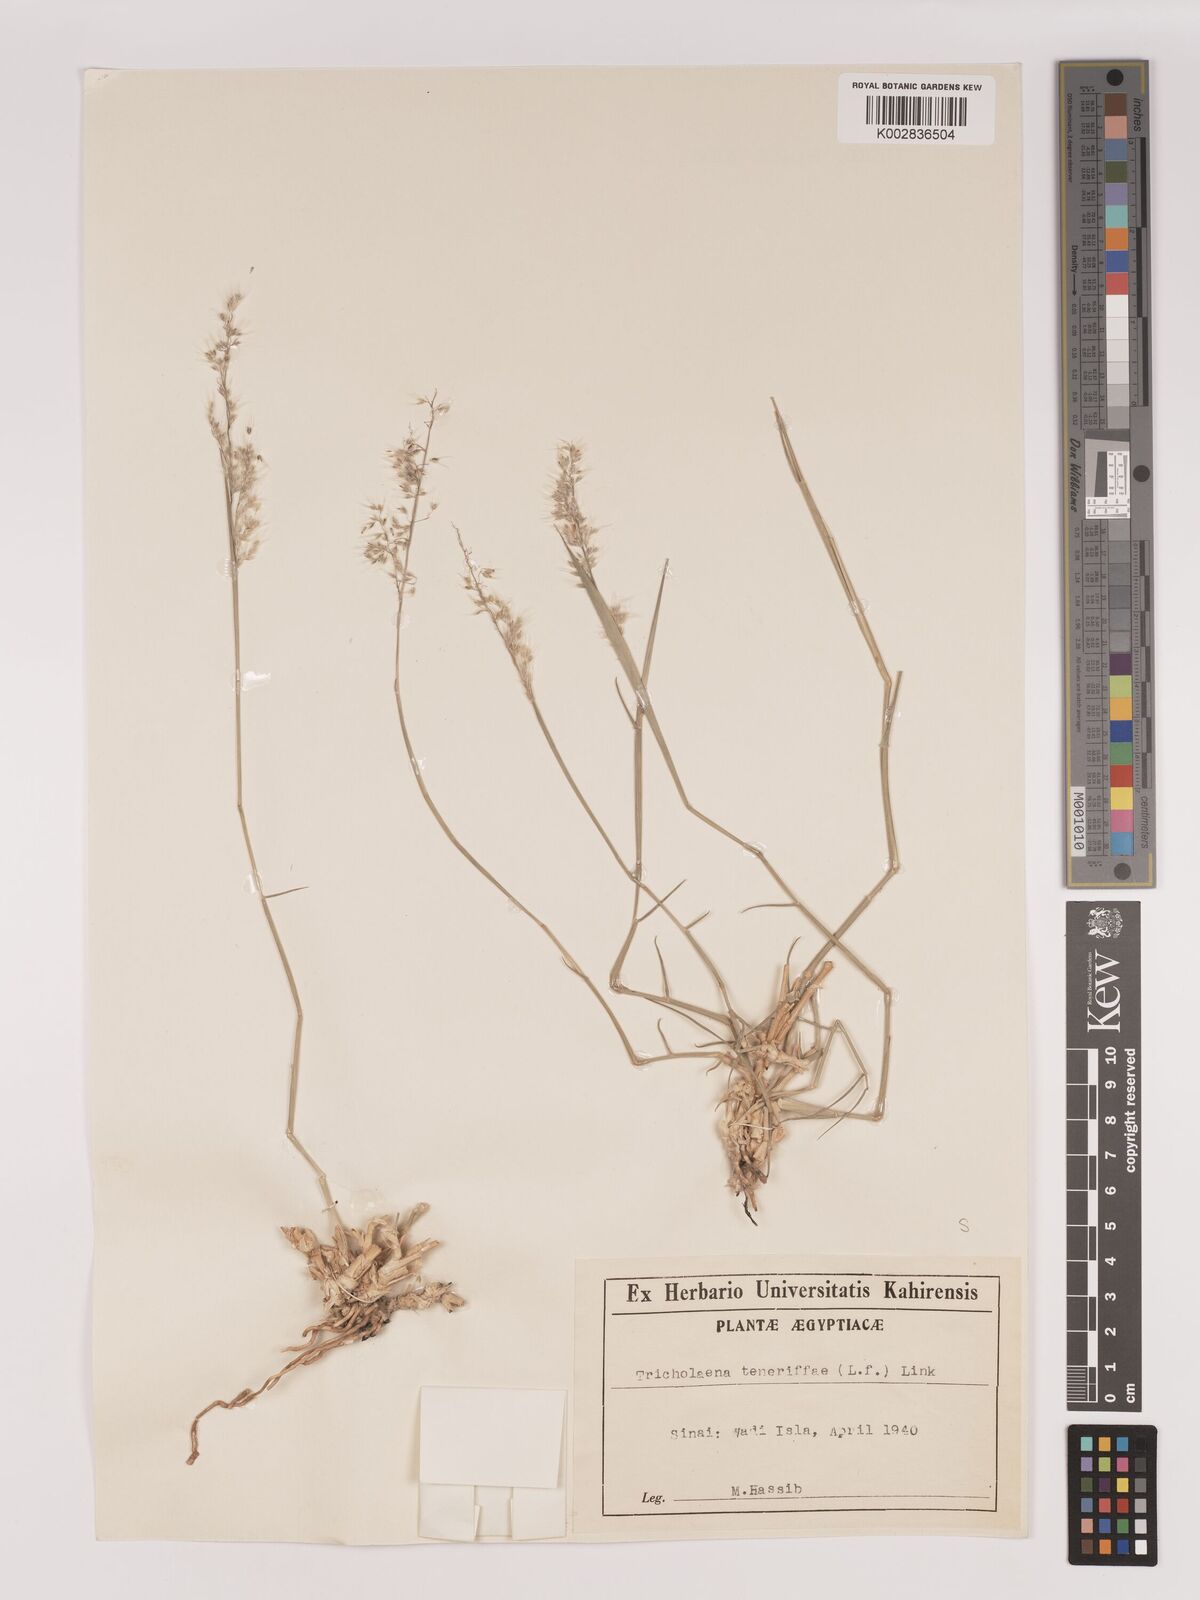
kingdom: Plantae
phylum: Tracheophyta
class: Liliopsida
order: Poales
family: Poaceae
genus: Tricholaena
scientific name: Tricholaena teneriffae
